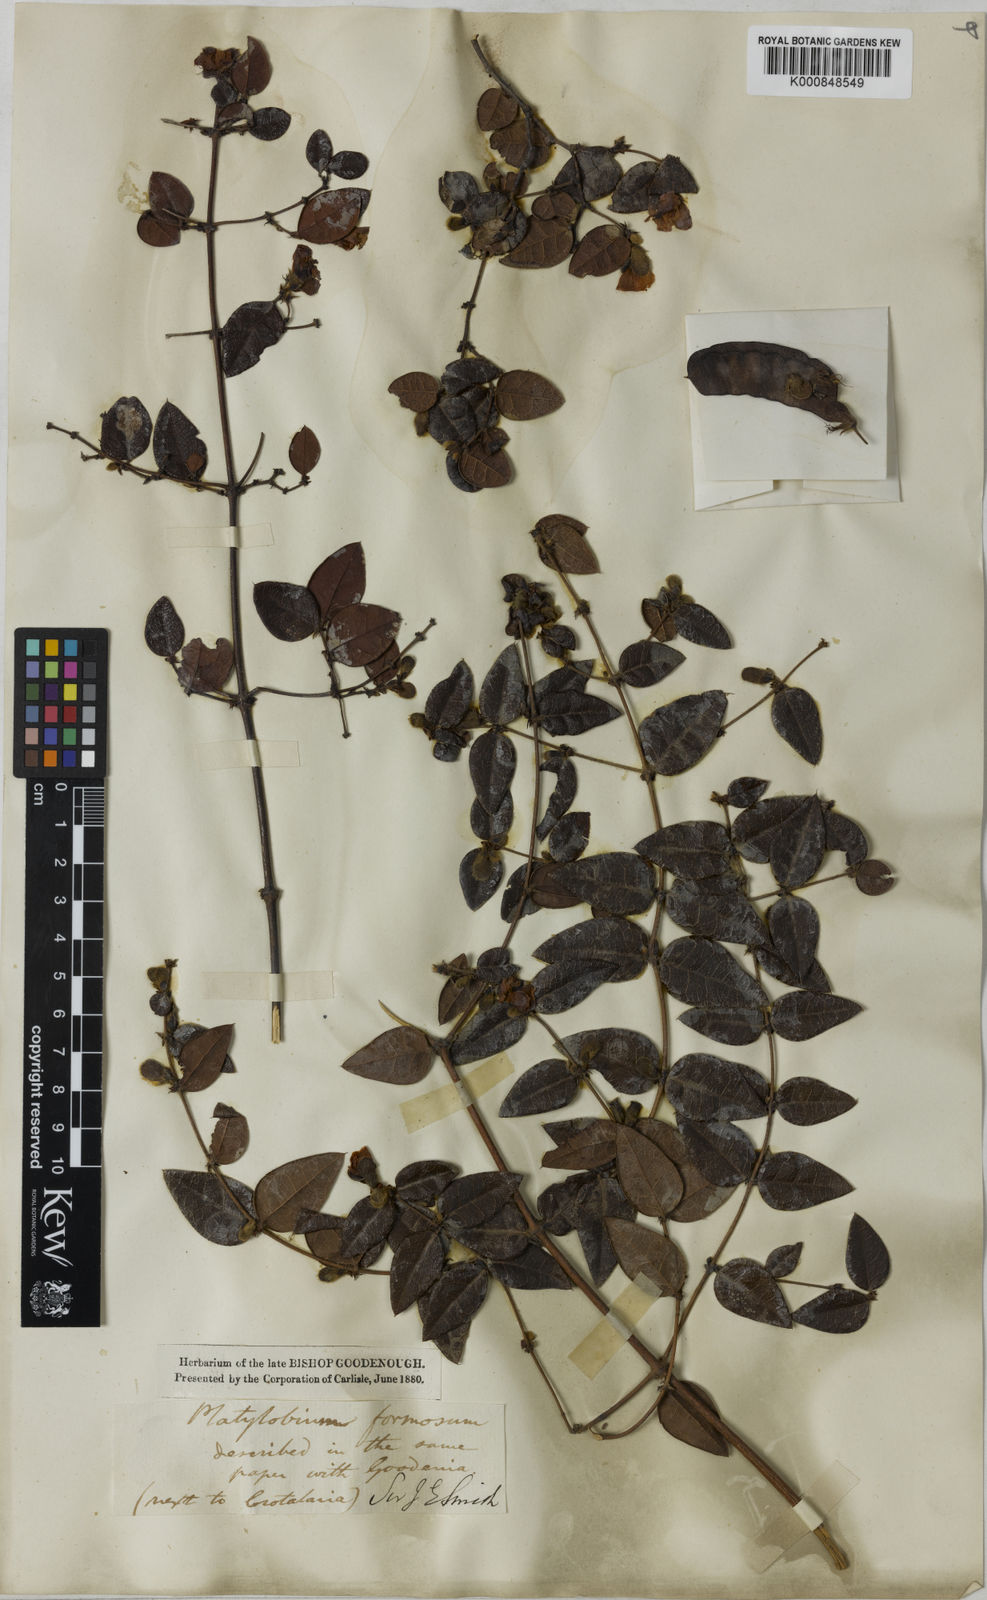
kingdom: Plantae
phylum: Tracheophyta
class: Magnoliopsida
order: Fabales
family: Fabaceae
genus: Platylobium
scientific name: Platylobium formosum
